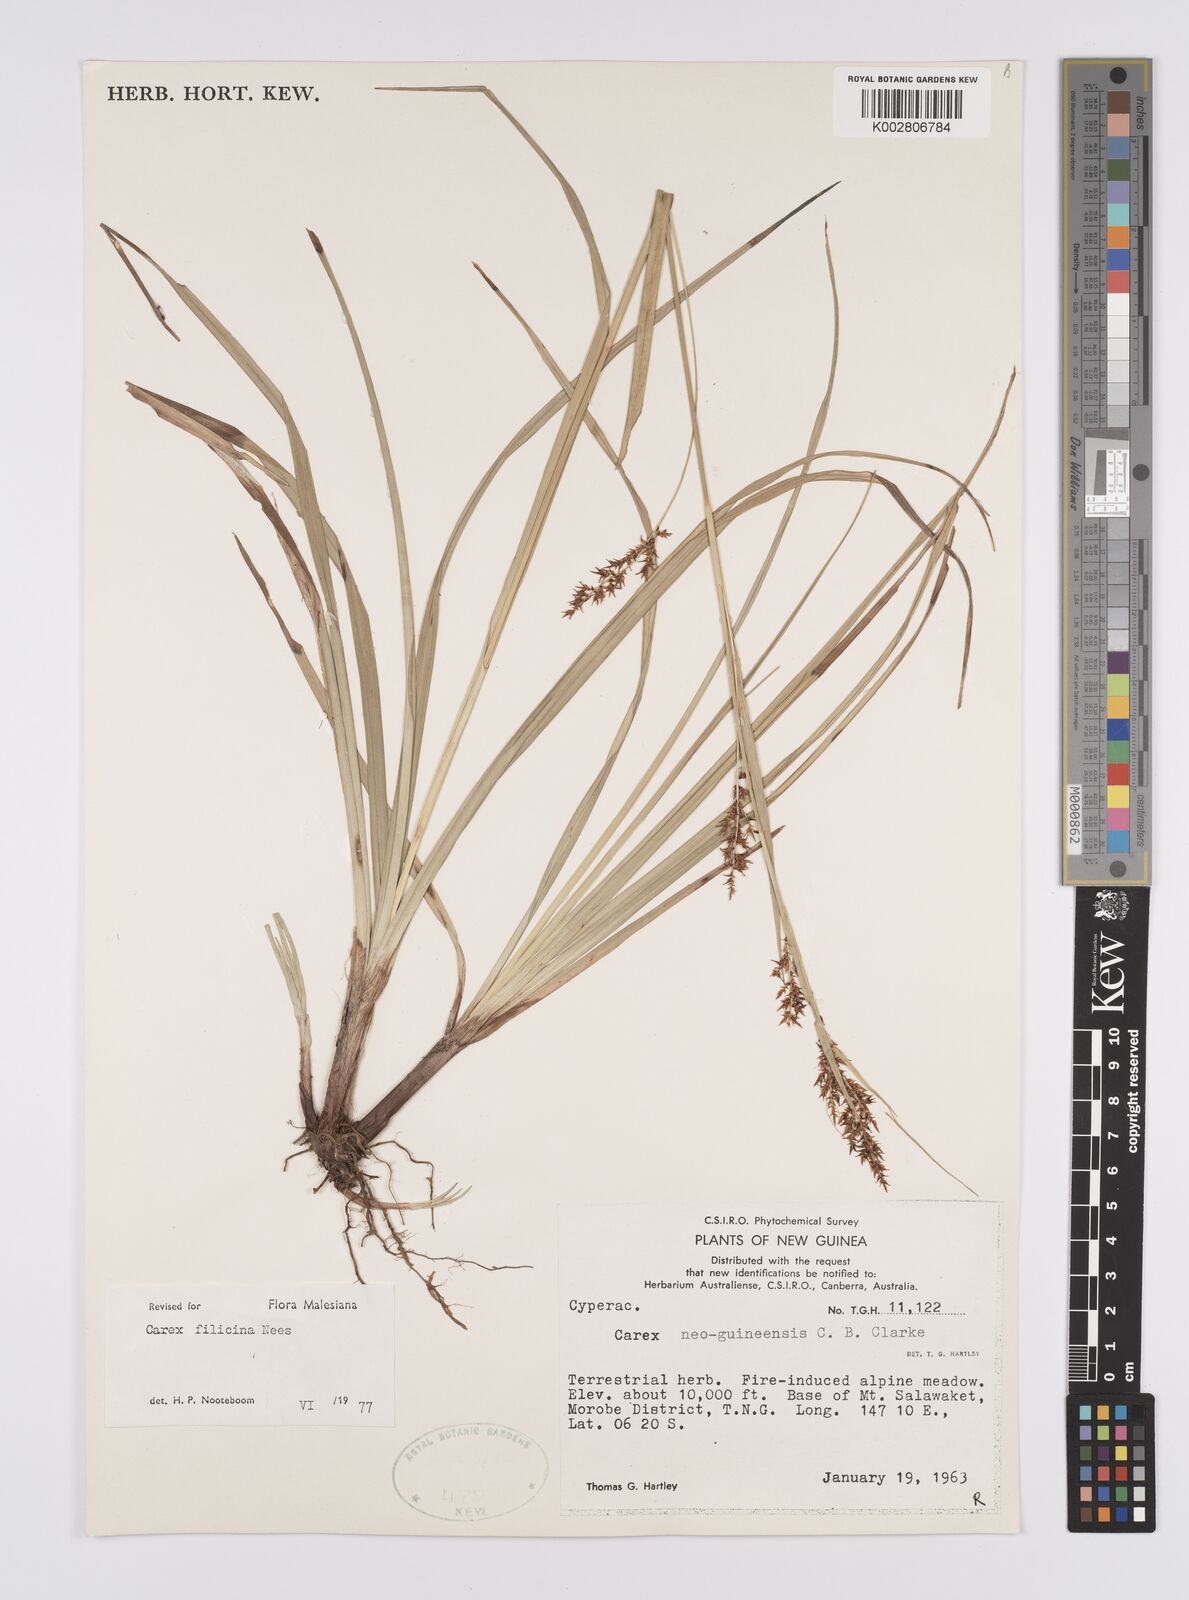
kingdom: Plantae
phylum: Tracheophyta
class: Liliopsida
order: Poales
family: Cyperaceae
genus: Carex
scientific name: Carex filicina
